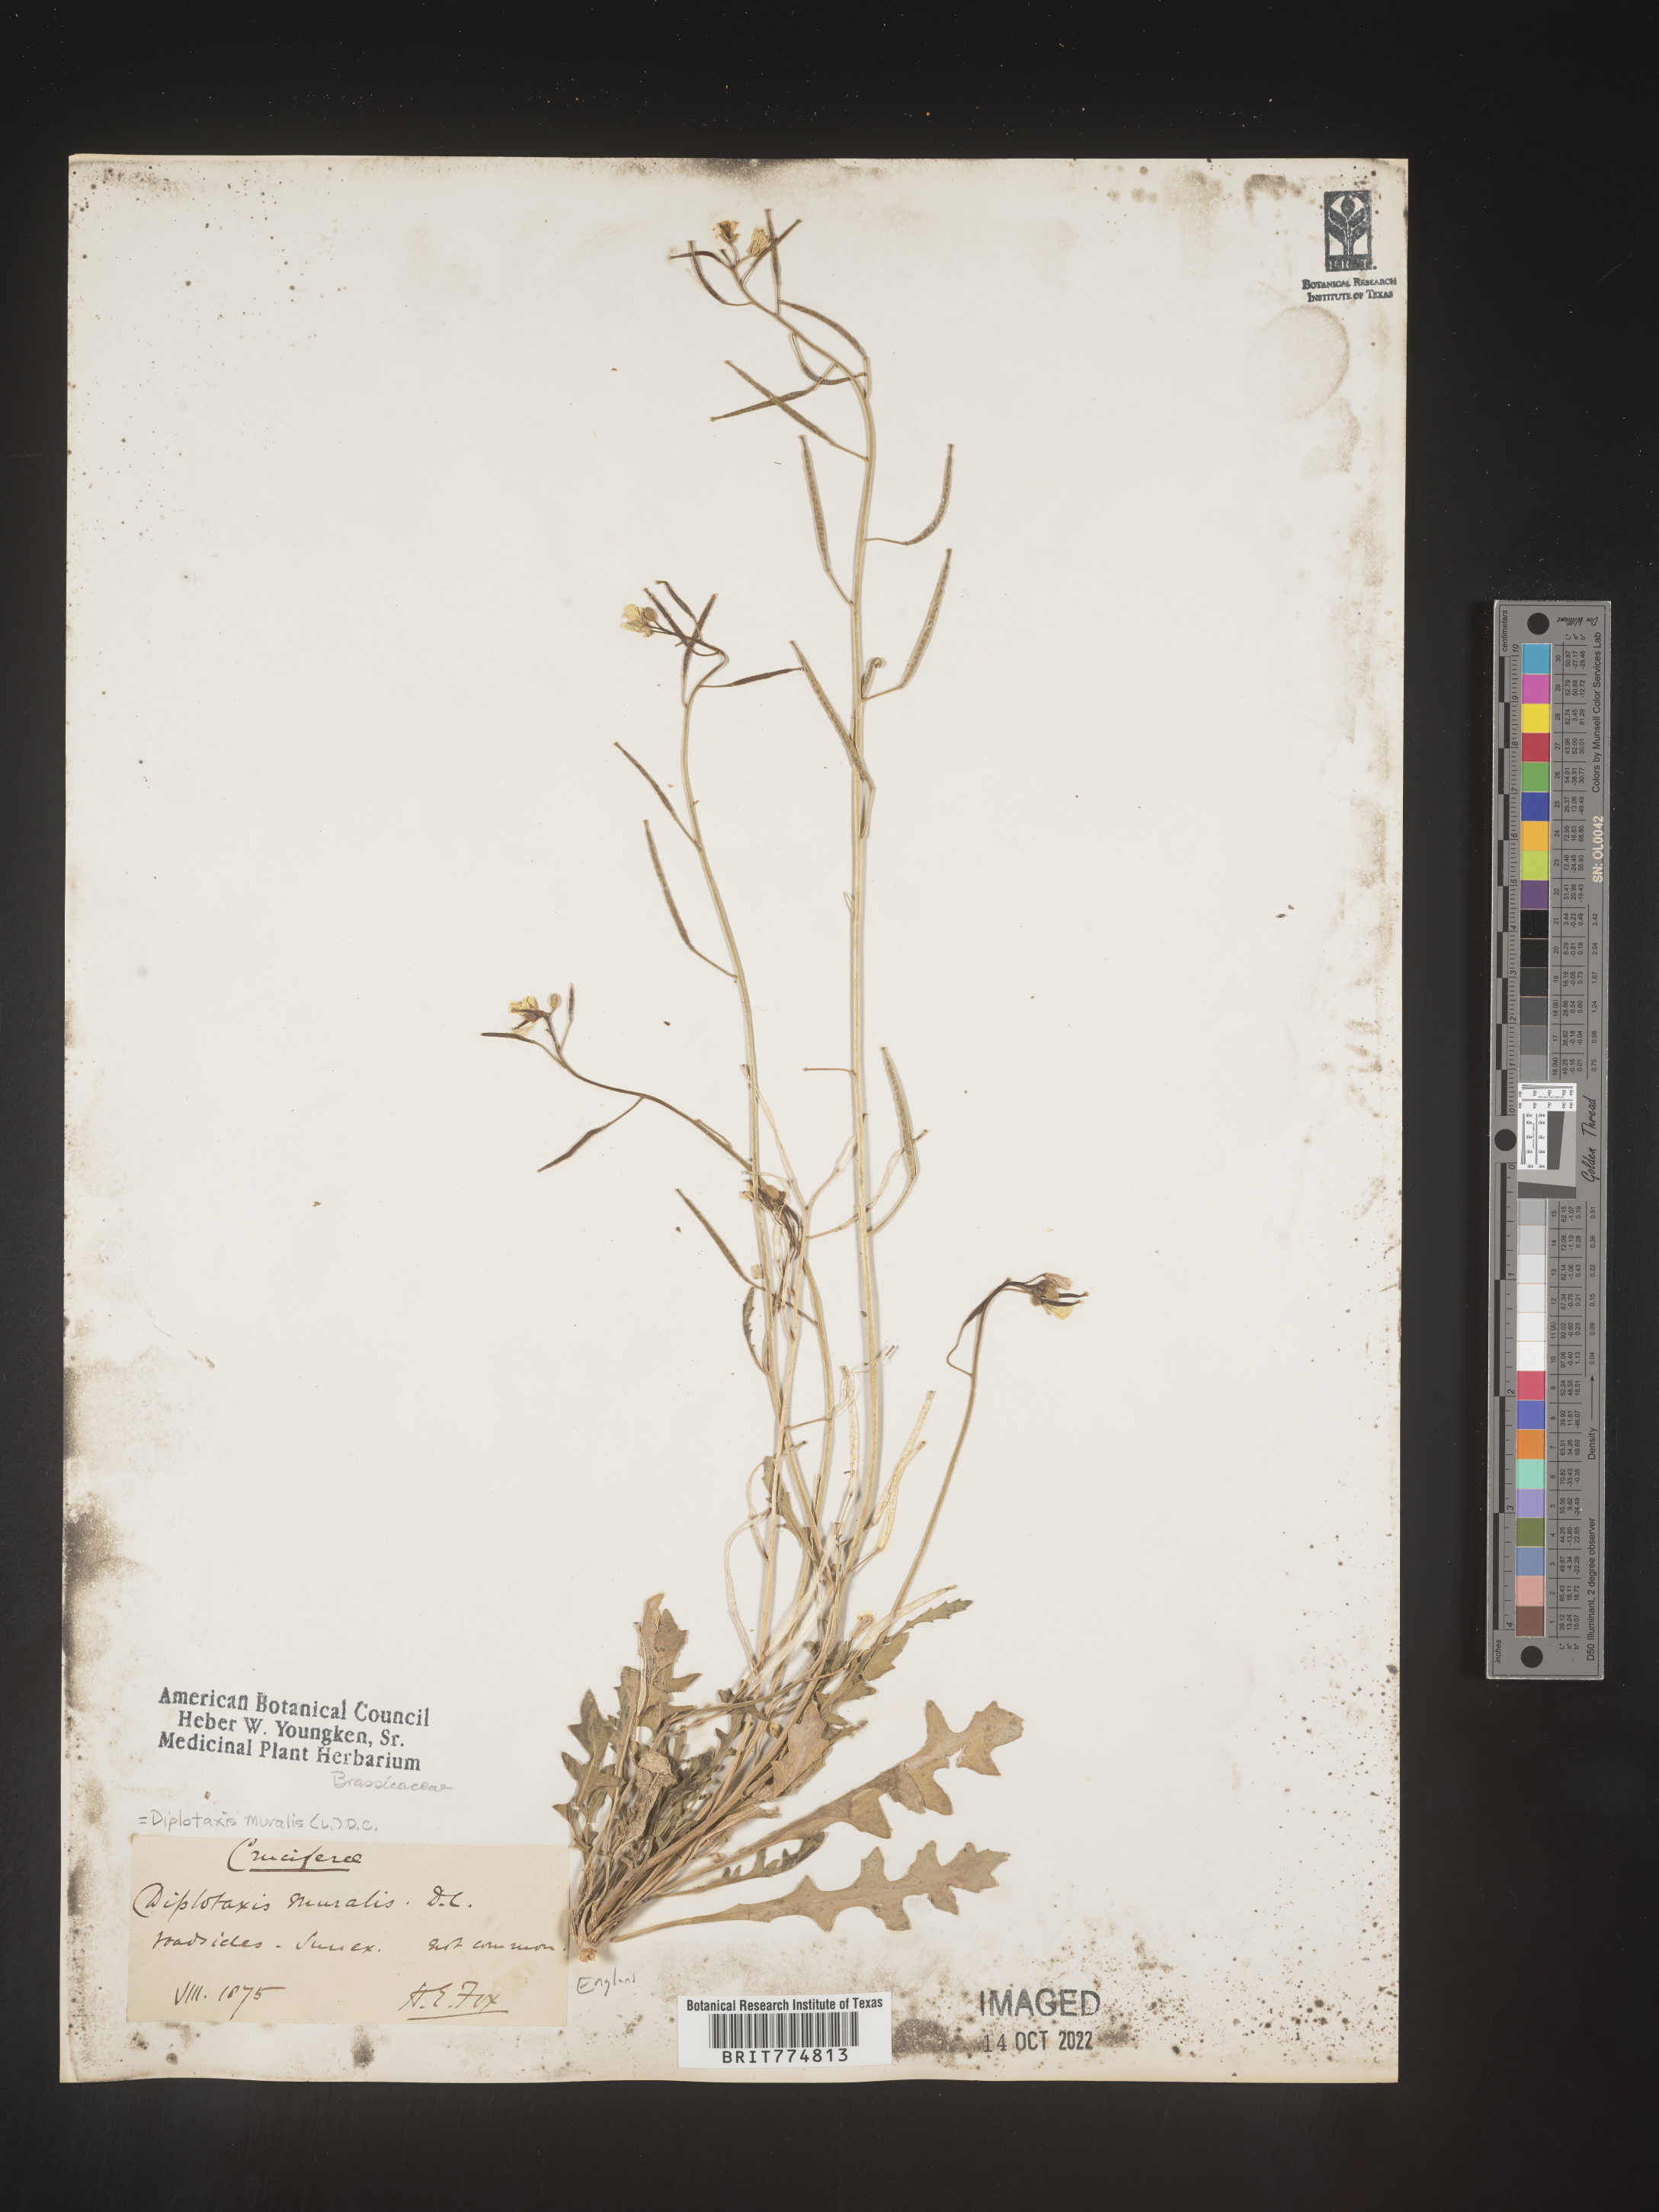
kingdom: Plantae
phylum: Tracheophyta
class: Magnoliopsida
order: Brassicales
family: Brassicaceae
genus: Diplotaxis
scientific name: Diplotaxis
